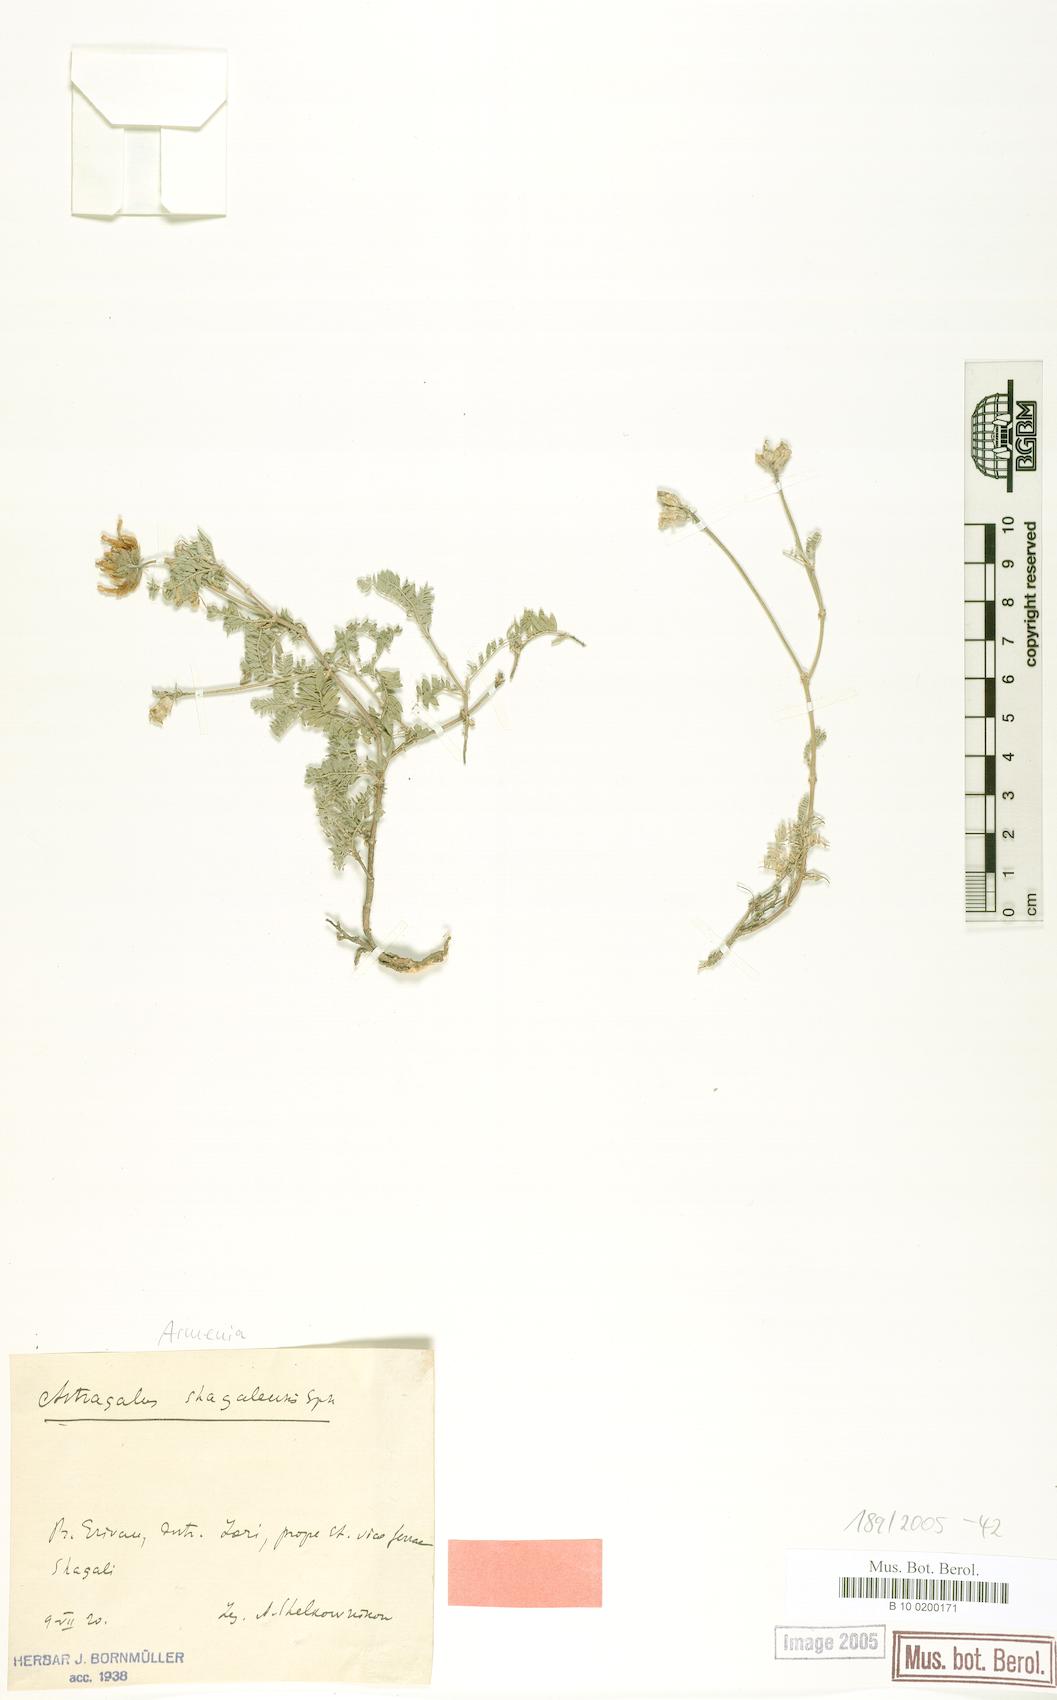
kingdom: Plantae
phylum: Tracheophyta
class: Magnoliopsida
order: Fabales
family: Fabaceae
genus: Astragalus
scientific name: Astragalus shagalensis
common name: Shagalian milk vetch
